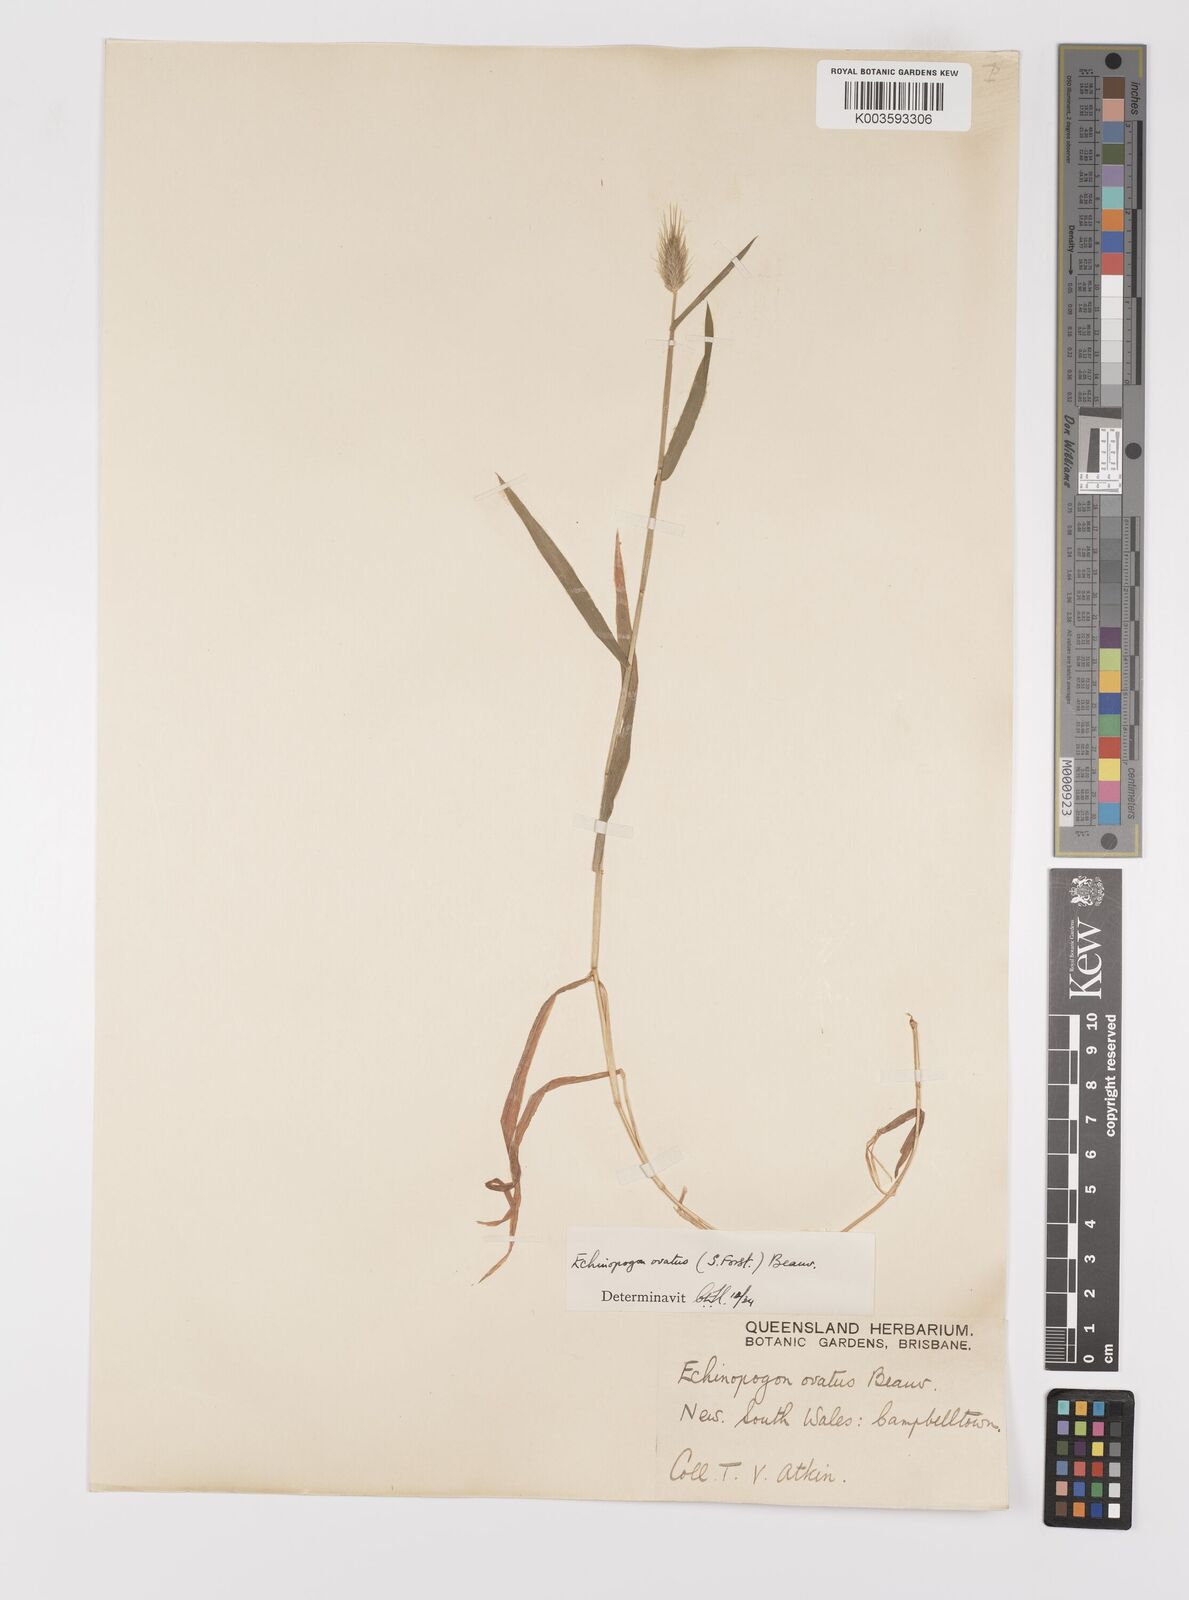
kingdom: Plantae
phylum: Tracheophyta
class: Liliopsida
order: Poales
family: Poaceae
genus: Echinopogon
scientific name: Echinopogon ovatus
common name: Hedgehog-grass
